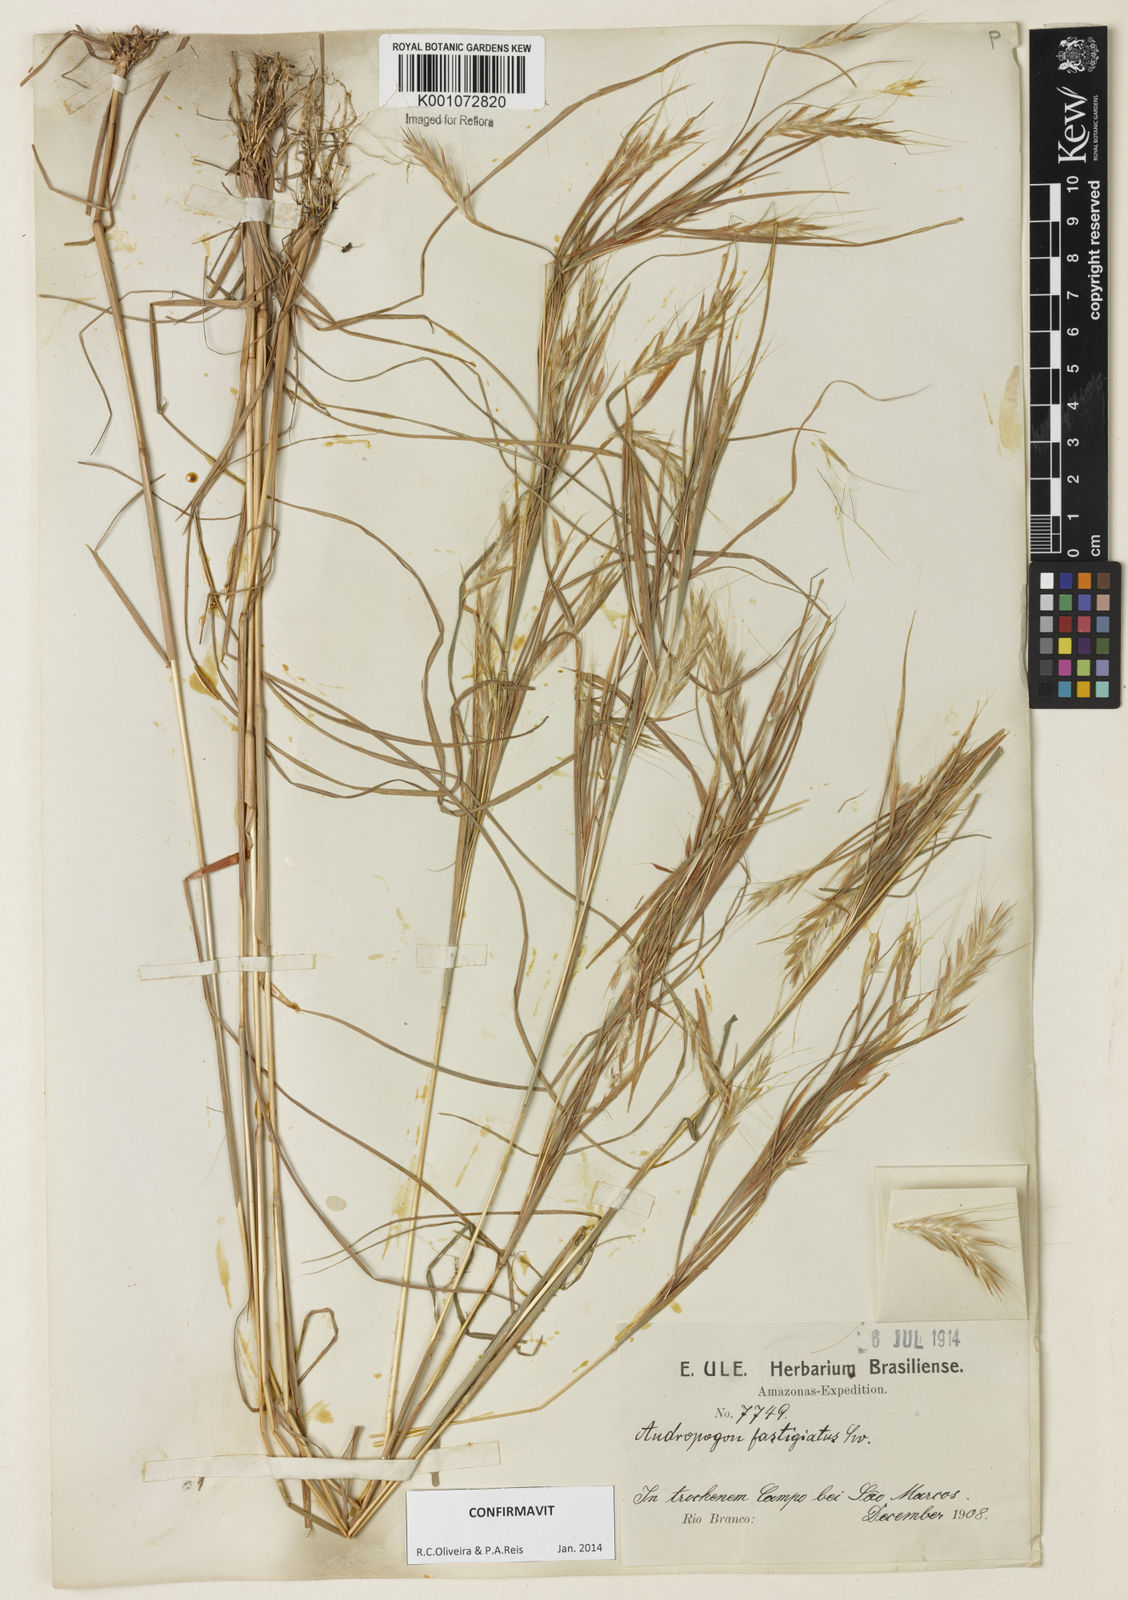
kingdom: Plantae
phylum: Tracheophyta
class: Liliopsida
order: Poales
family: Poaceae
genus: Diectomis
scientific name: Diectomis fastigiata
